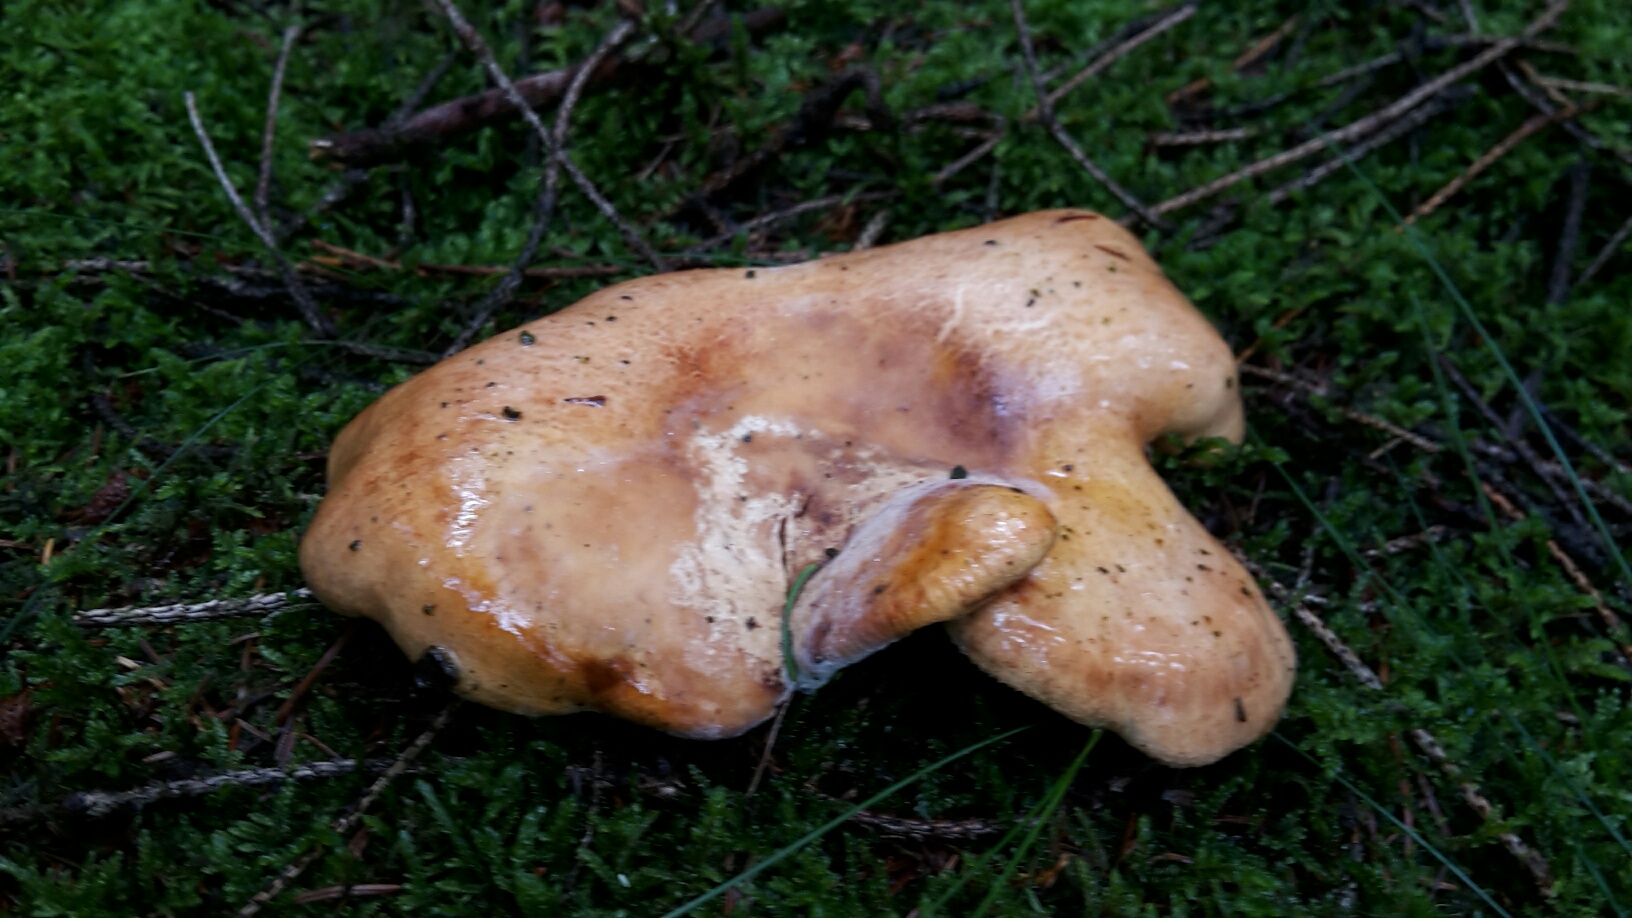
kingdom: Fungi
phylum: Basidiomycota
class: Agaricomycetes
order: Boletales
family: Paxillaceae
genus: Paxillus
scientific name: Paxillus involutus
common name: almindelig netbladhat
